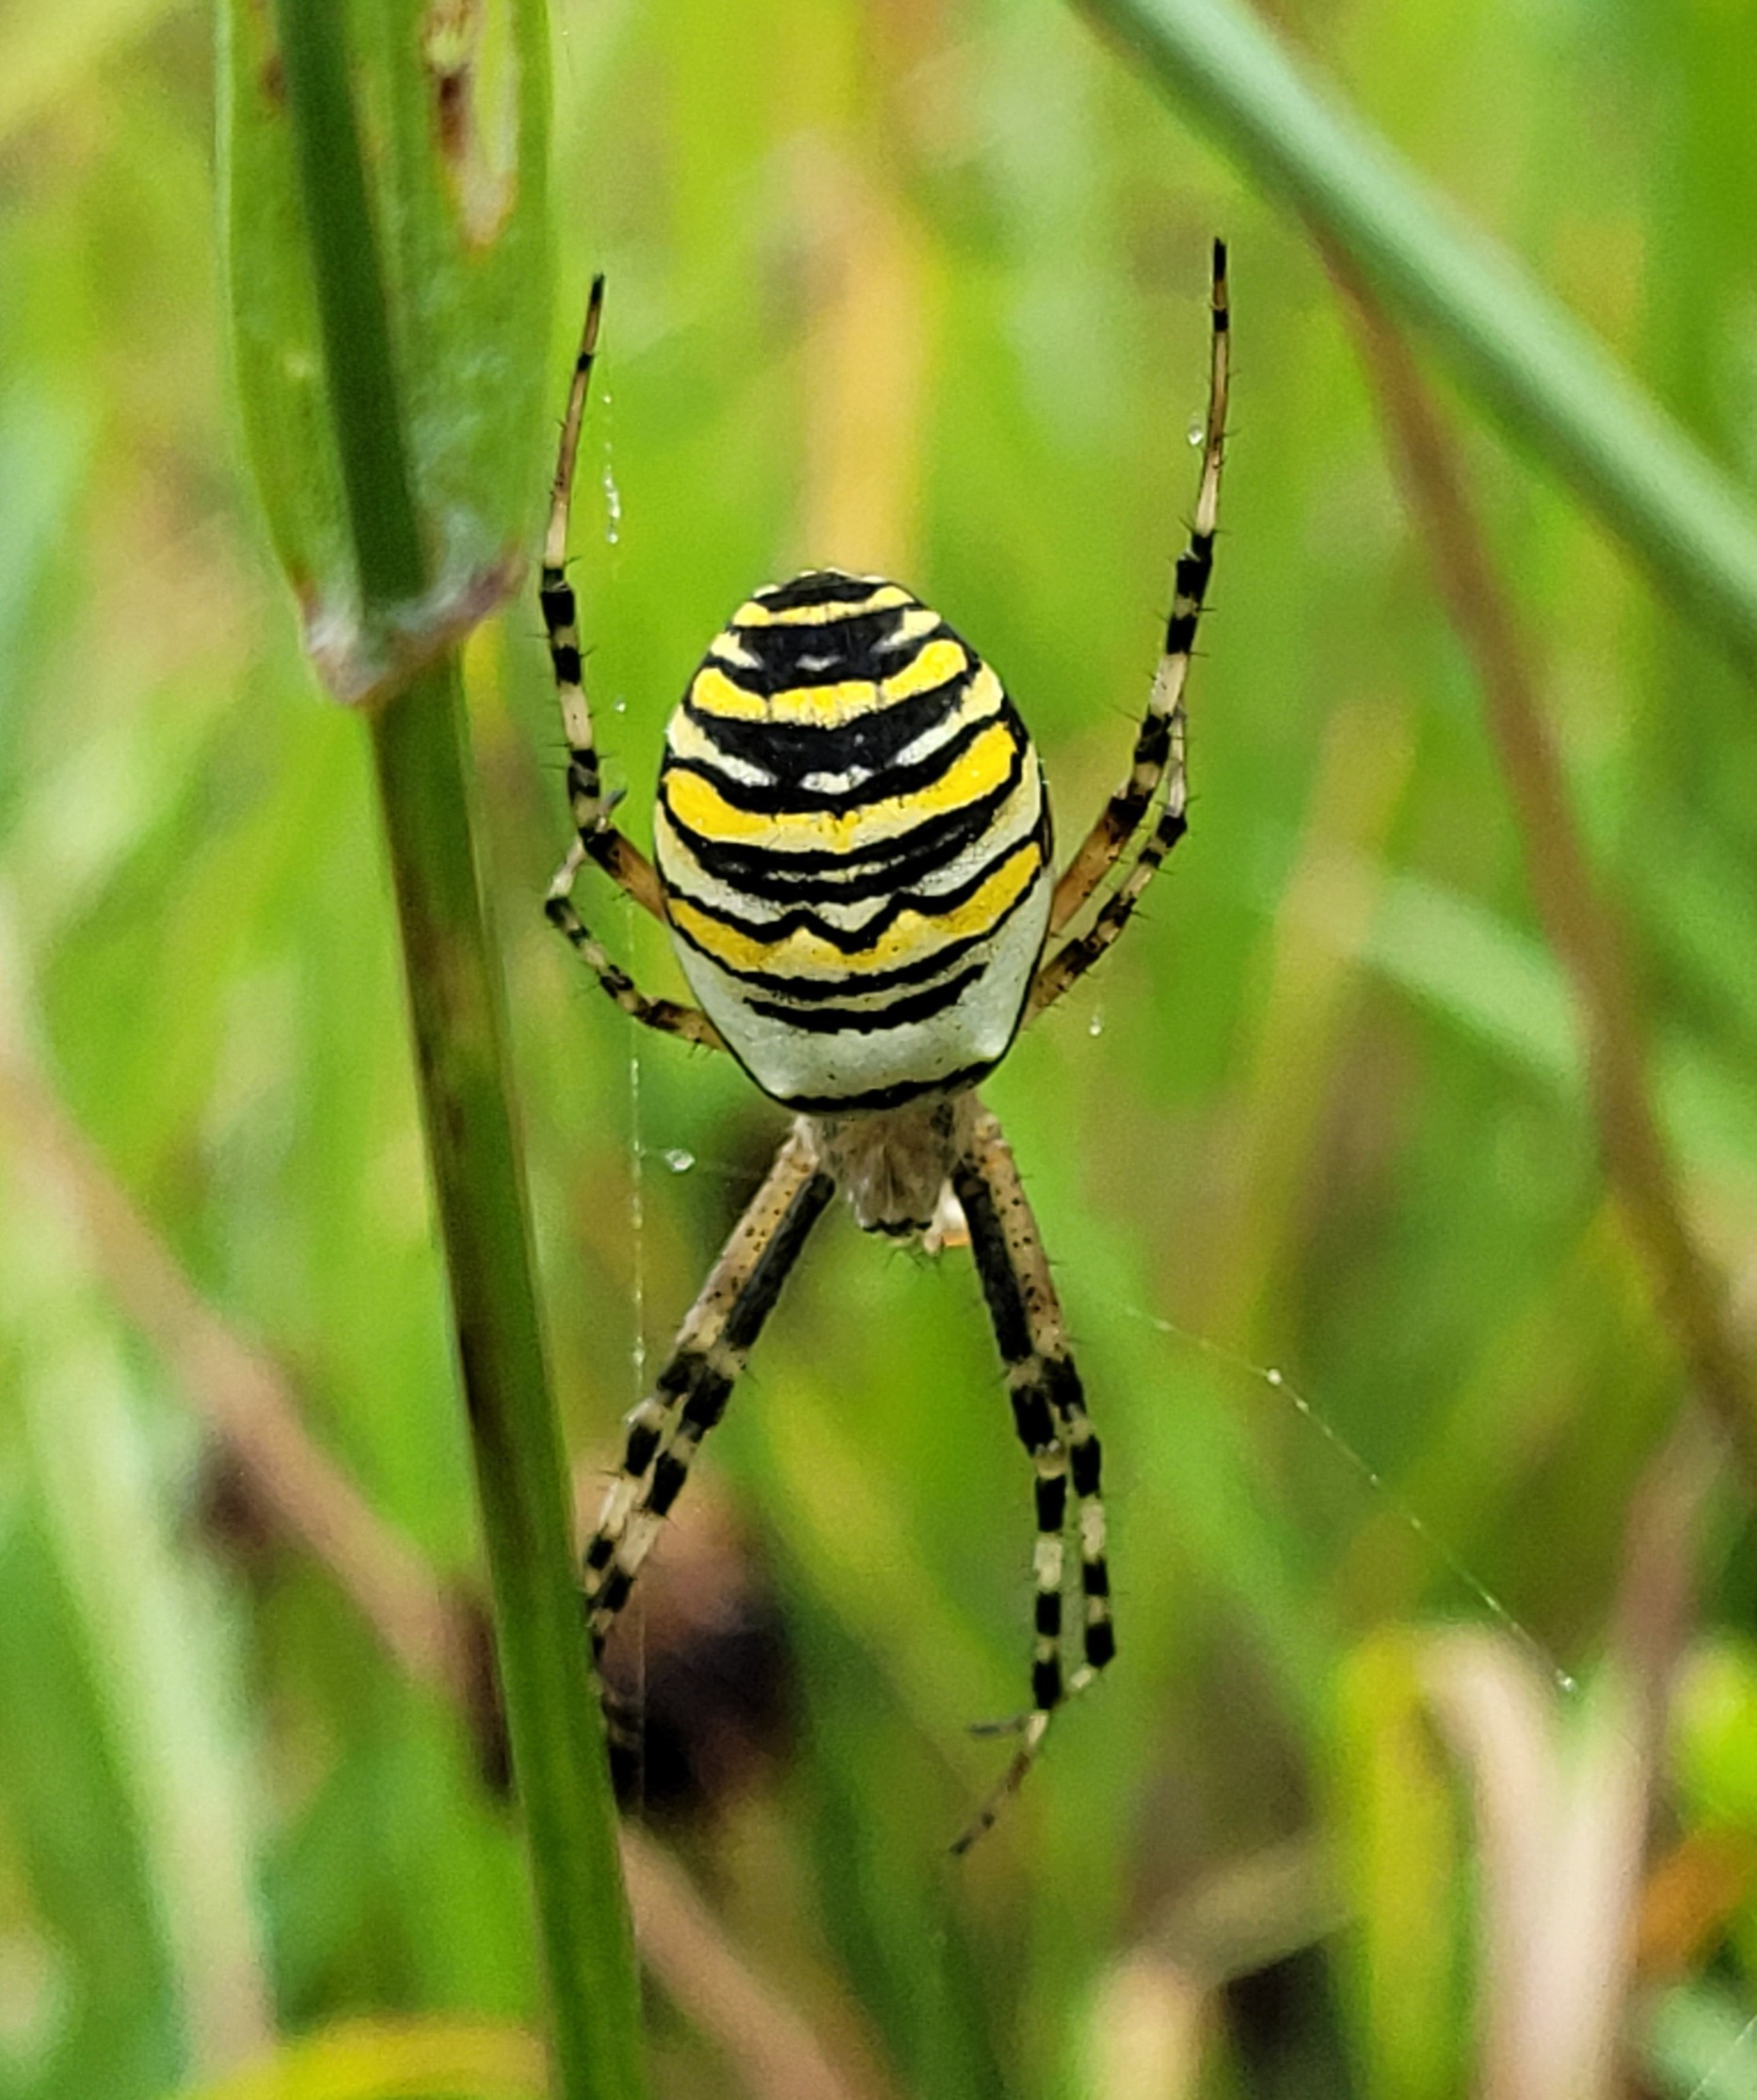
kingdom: Animalia
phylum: Arthropoda
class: Arachnida
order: Araneae
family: Araneidae
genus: Argiope
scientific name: Argiope bruennichi
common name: Hvepseedderkop
